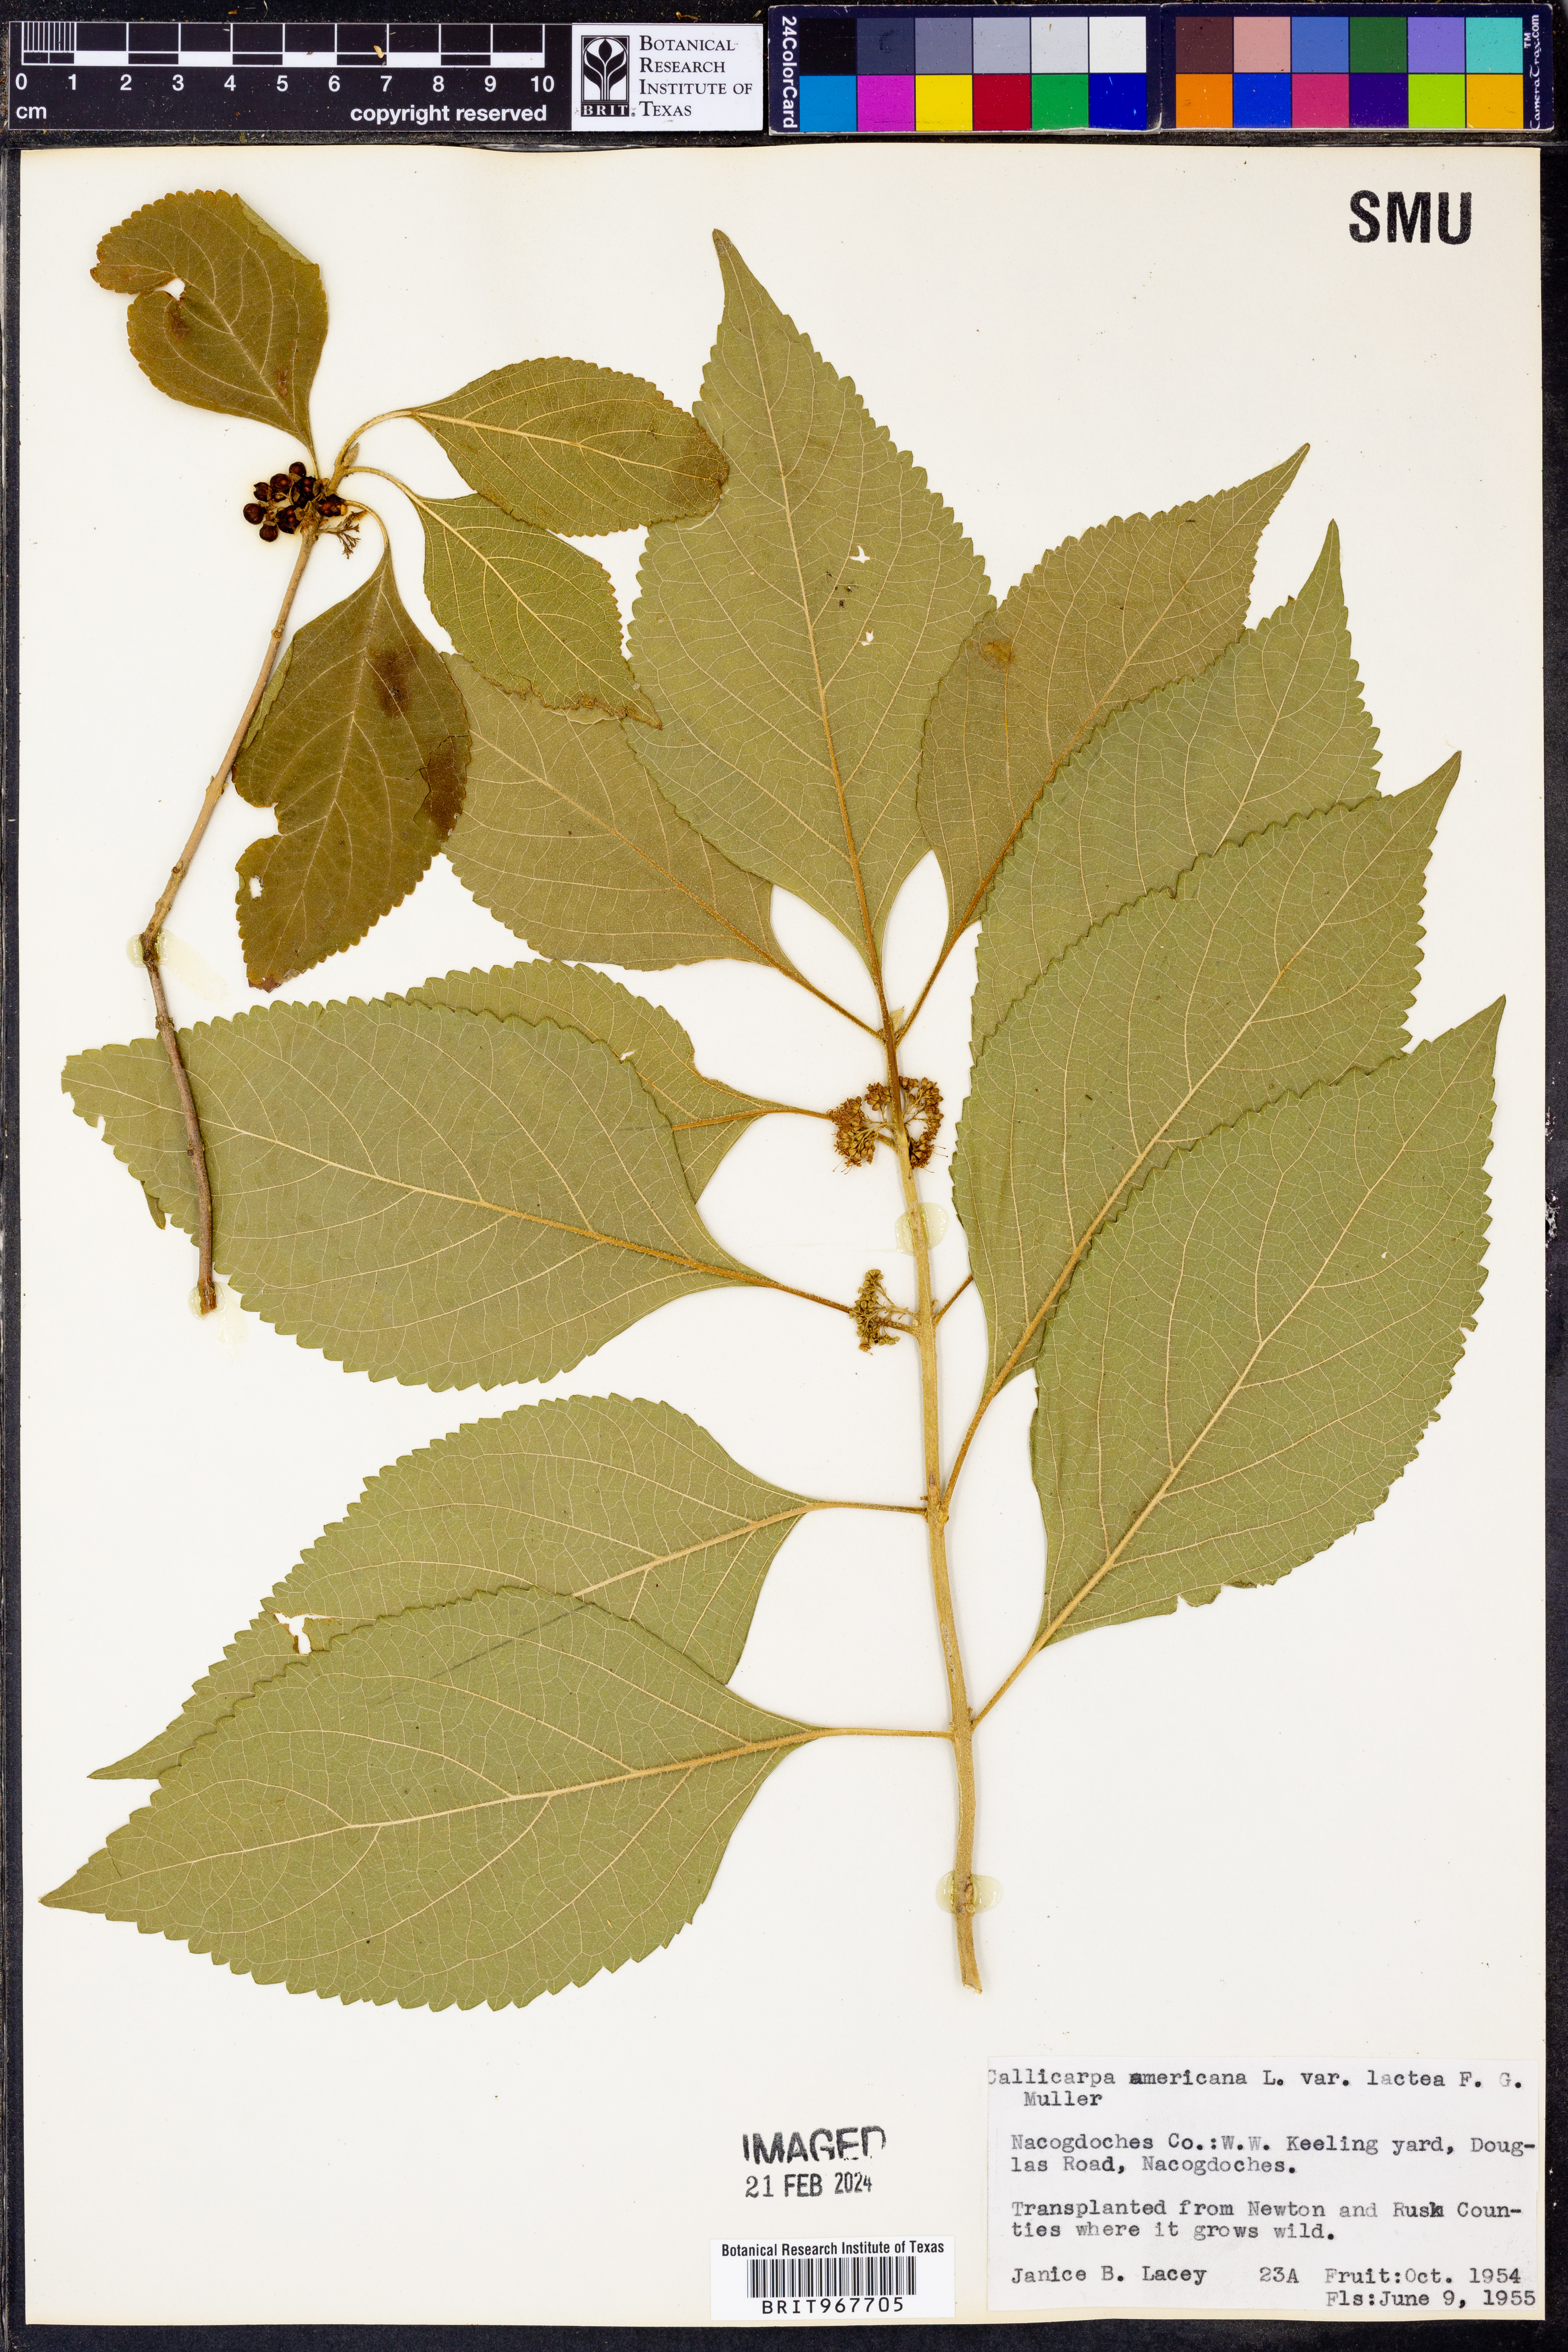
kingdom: Plantae
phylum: Tracheophyta
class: Magnoliopsida
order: Lamiales
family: Lamiaceae
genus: Callicarpa
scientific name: Callicarpa
